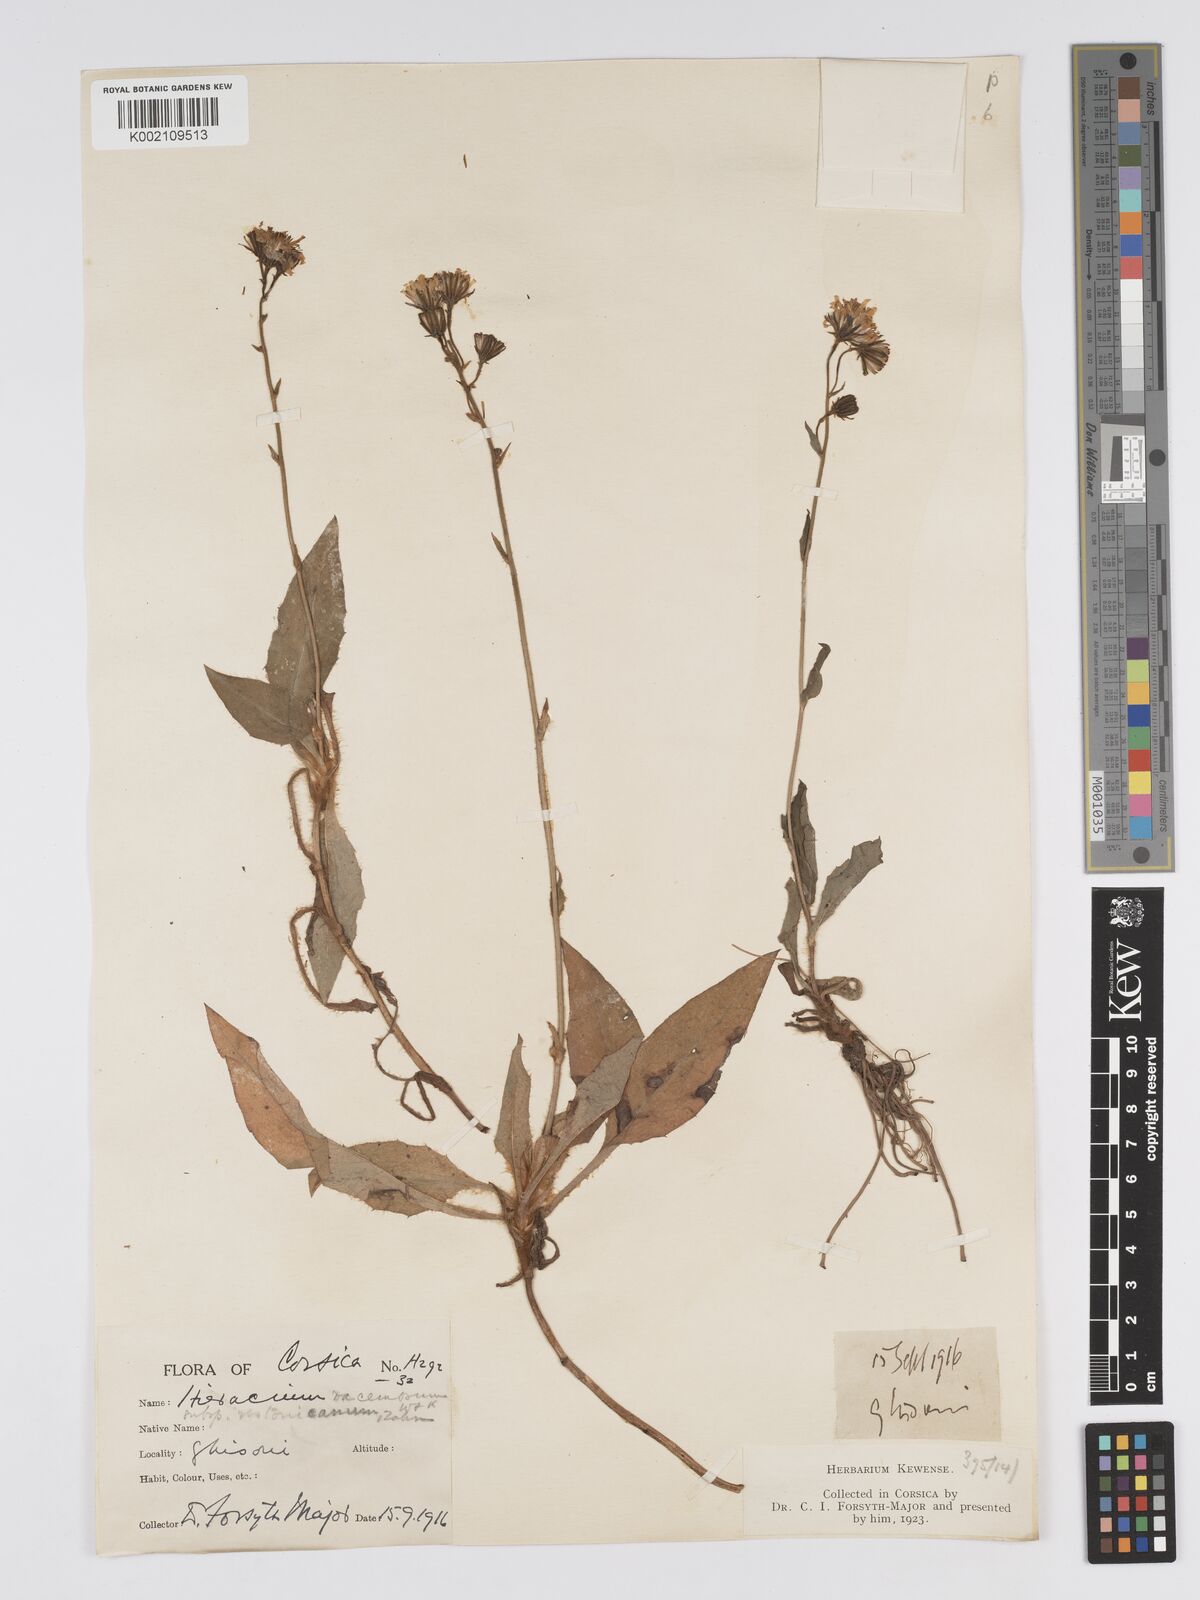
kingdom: Plantae
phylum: Tracheophyta
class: Magnoliopsida
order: Asterales
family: Asteraceae
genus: Hieracium
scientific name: Hieracium
